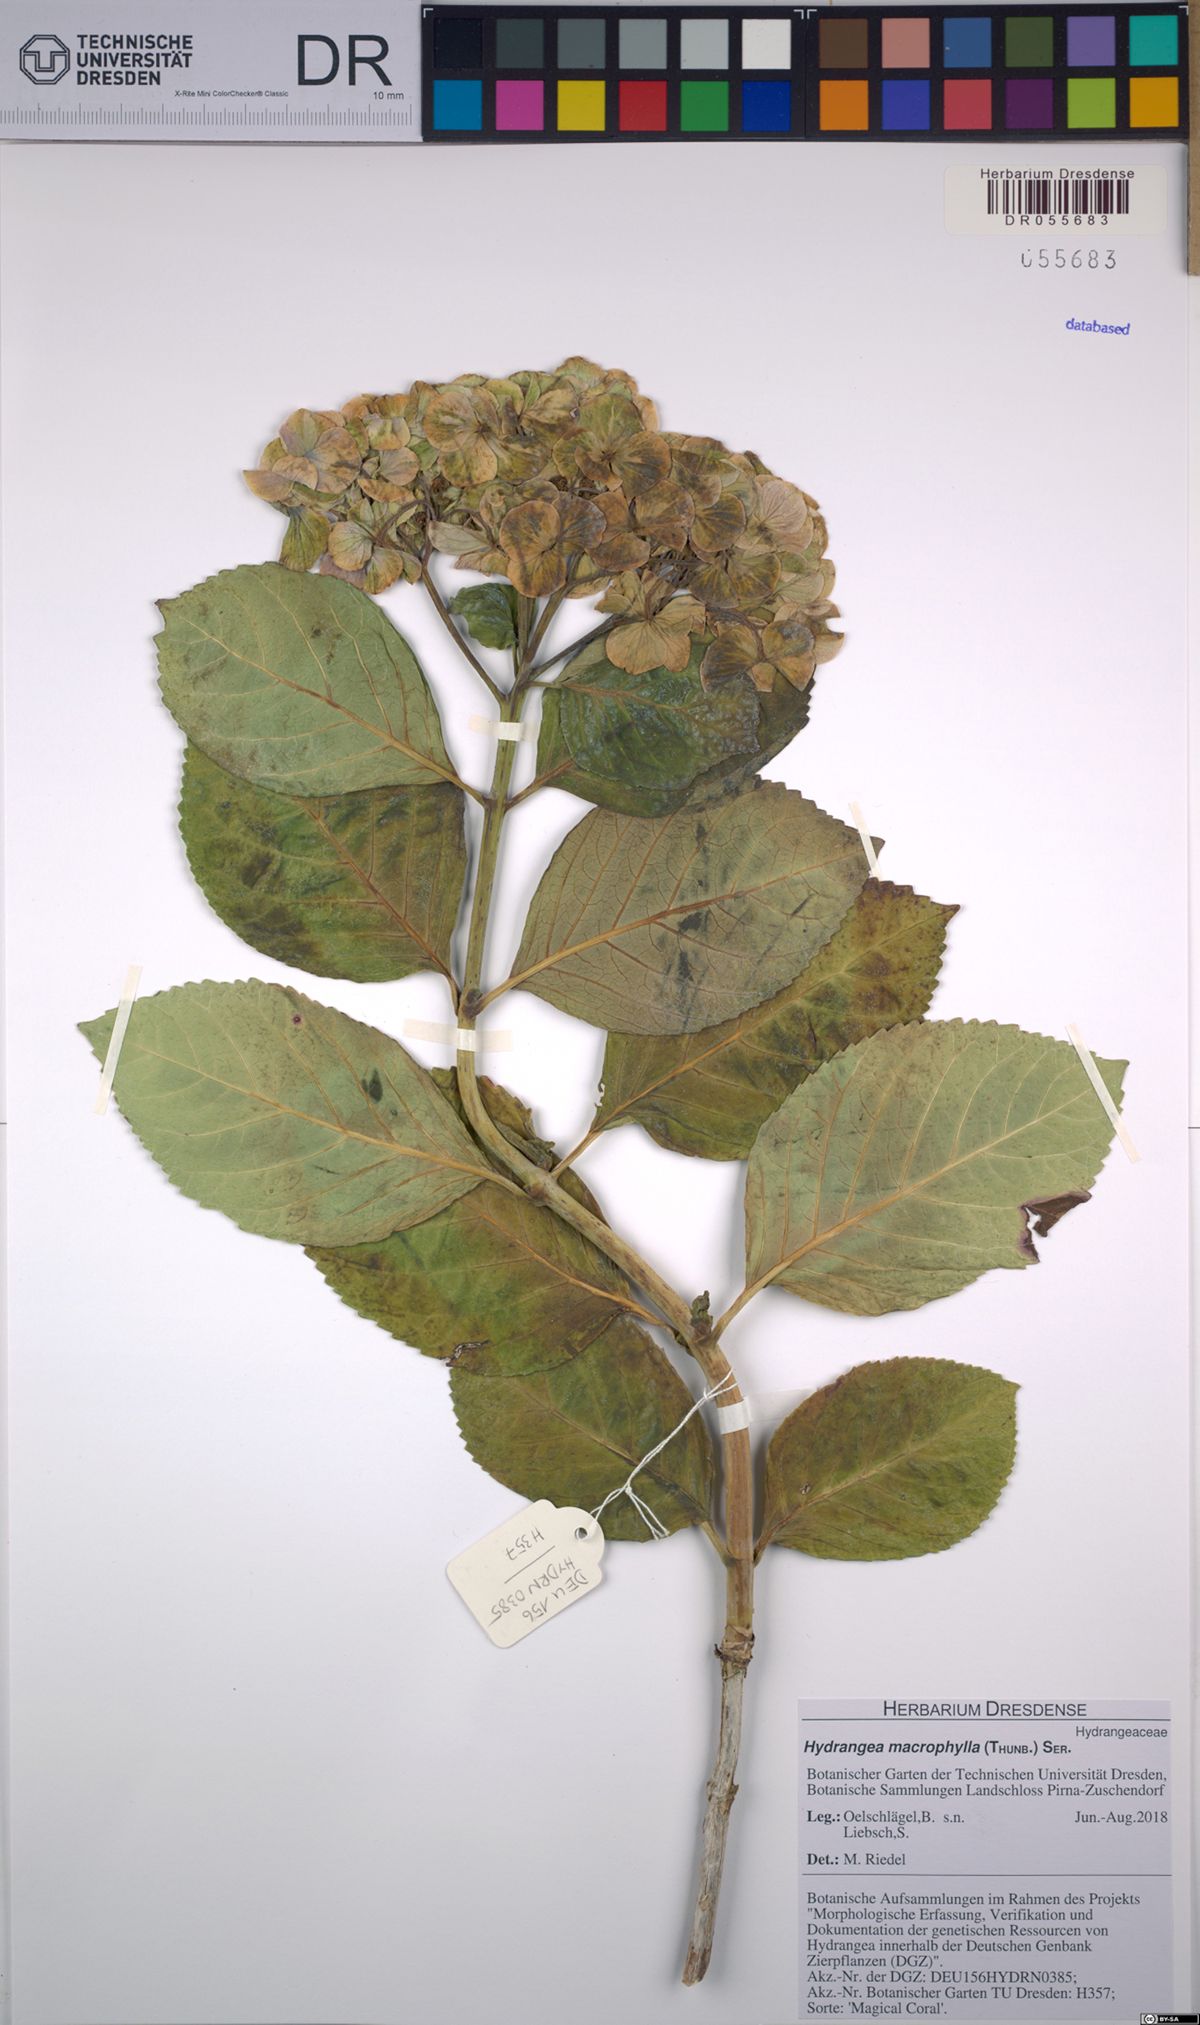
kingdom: Plantae
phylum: Tracheophyta
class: Magnoliopsida
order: Cornales
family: Hydrangeaceae
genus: Hydrangea
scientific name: Hydrangea macrophylla
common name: Hydrangea
